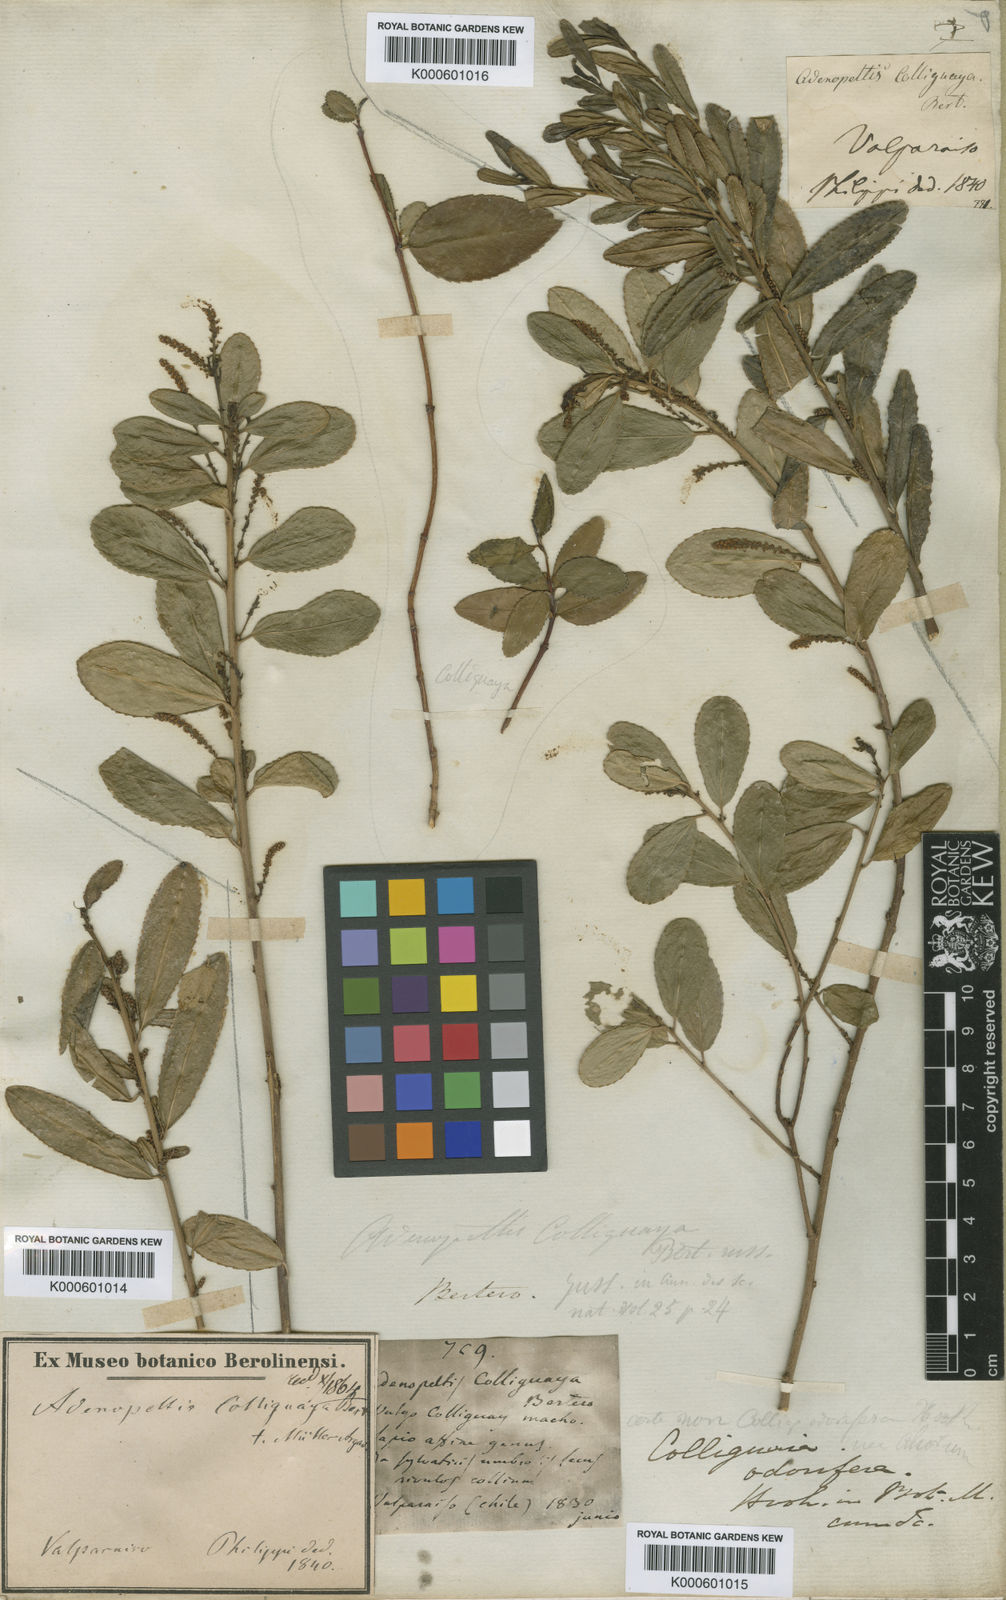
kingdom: Plantae
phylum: Tracheophyta
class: Magnoliopsida
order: Malpighiales
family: Euphorbiaceae
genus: Adenopeltis
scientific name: Adenopeltis
